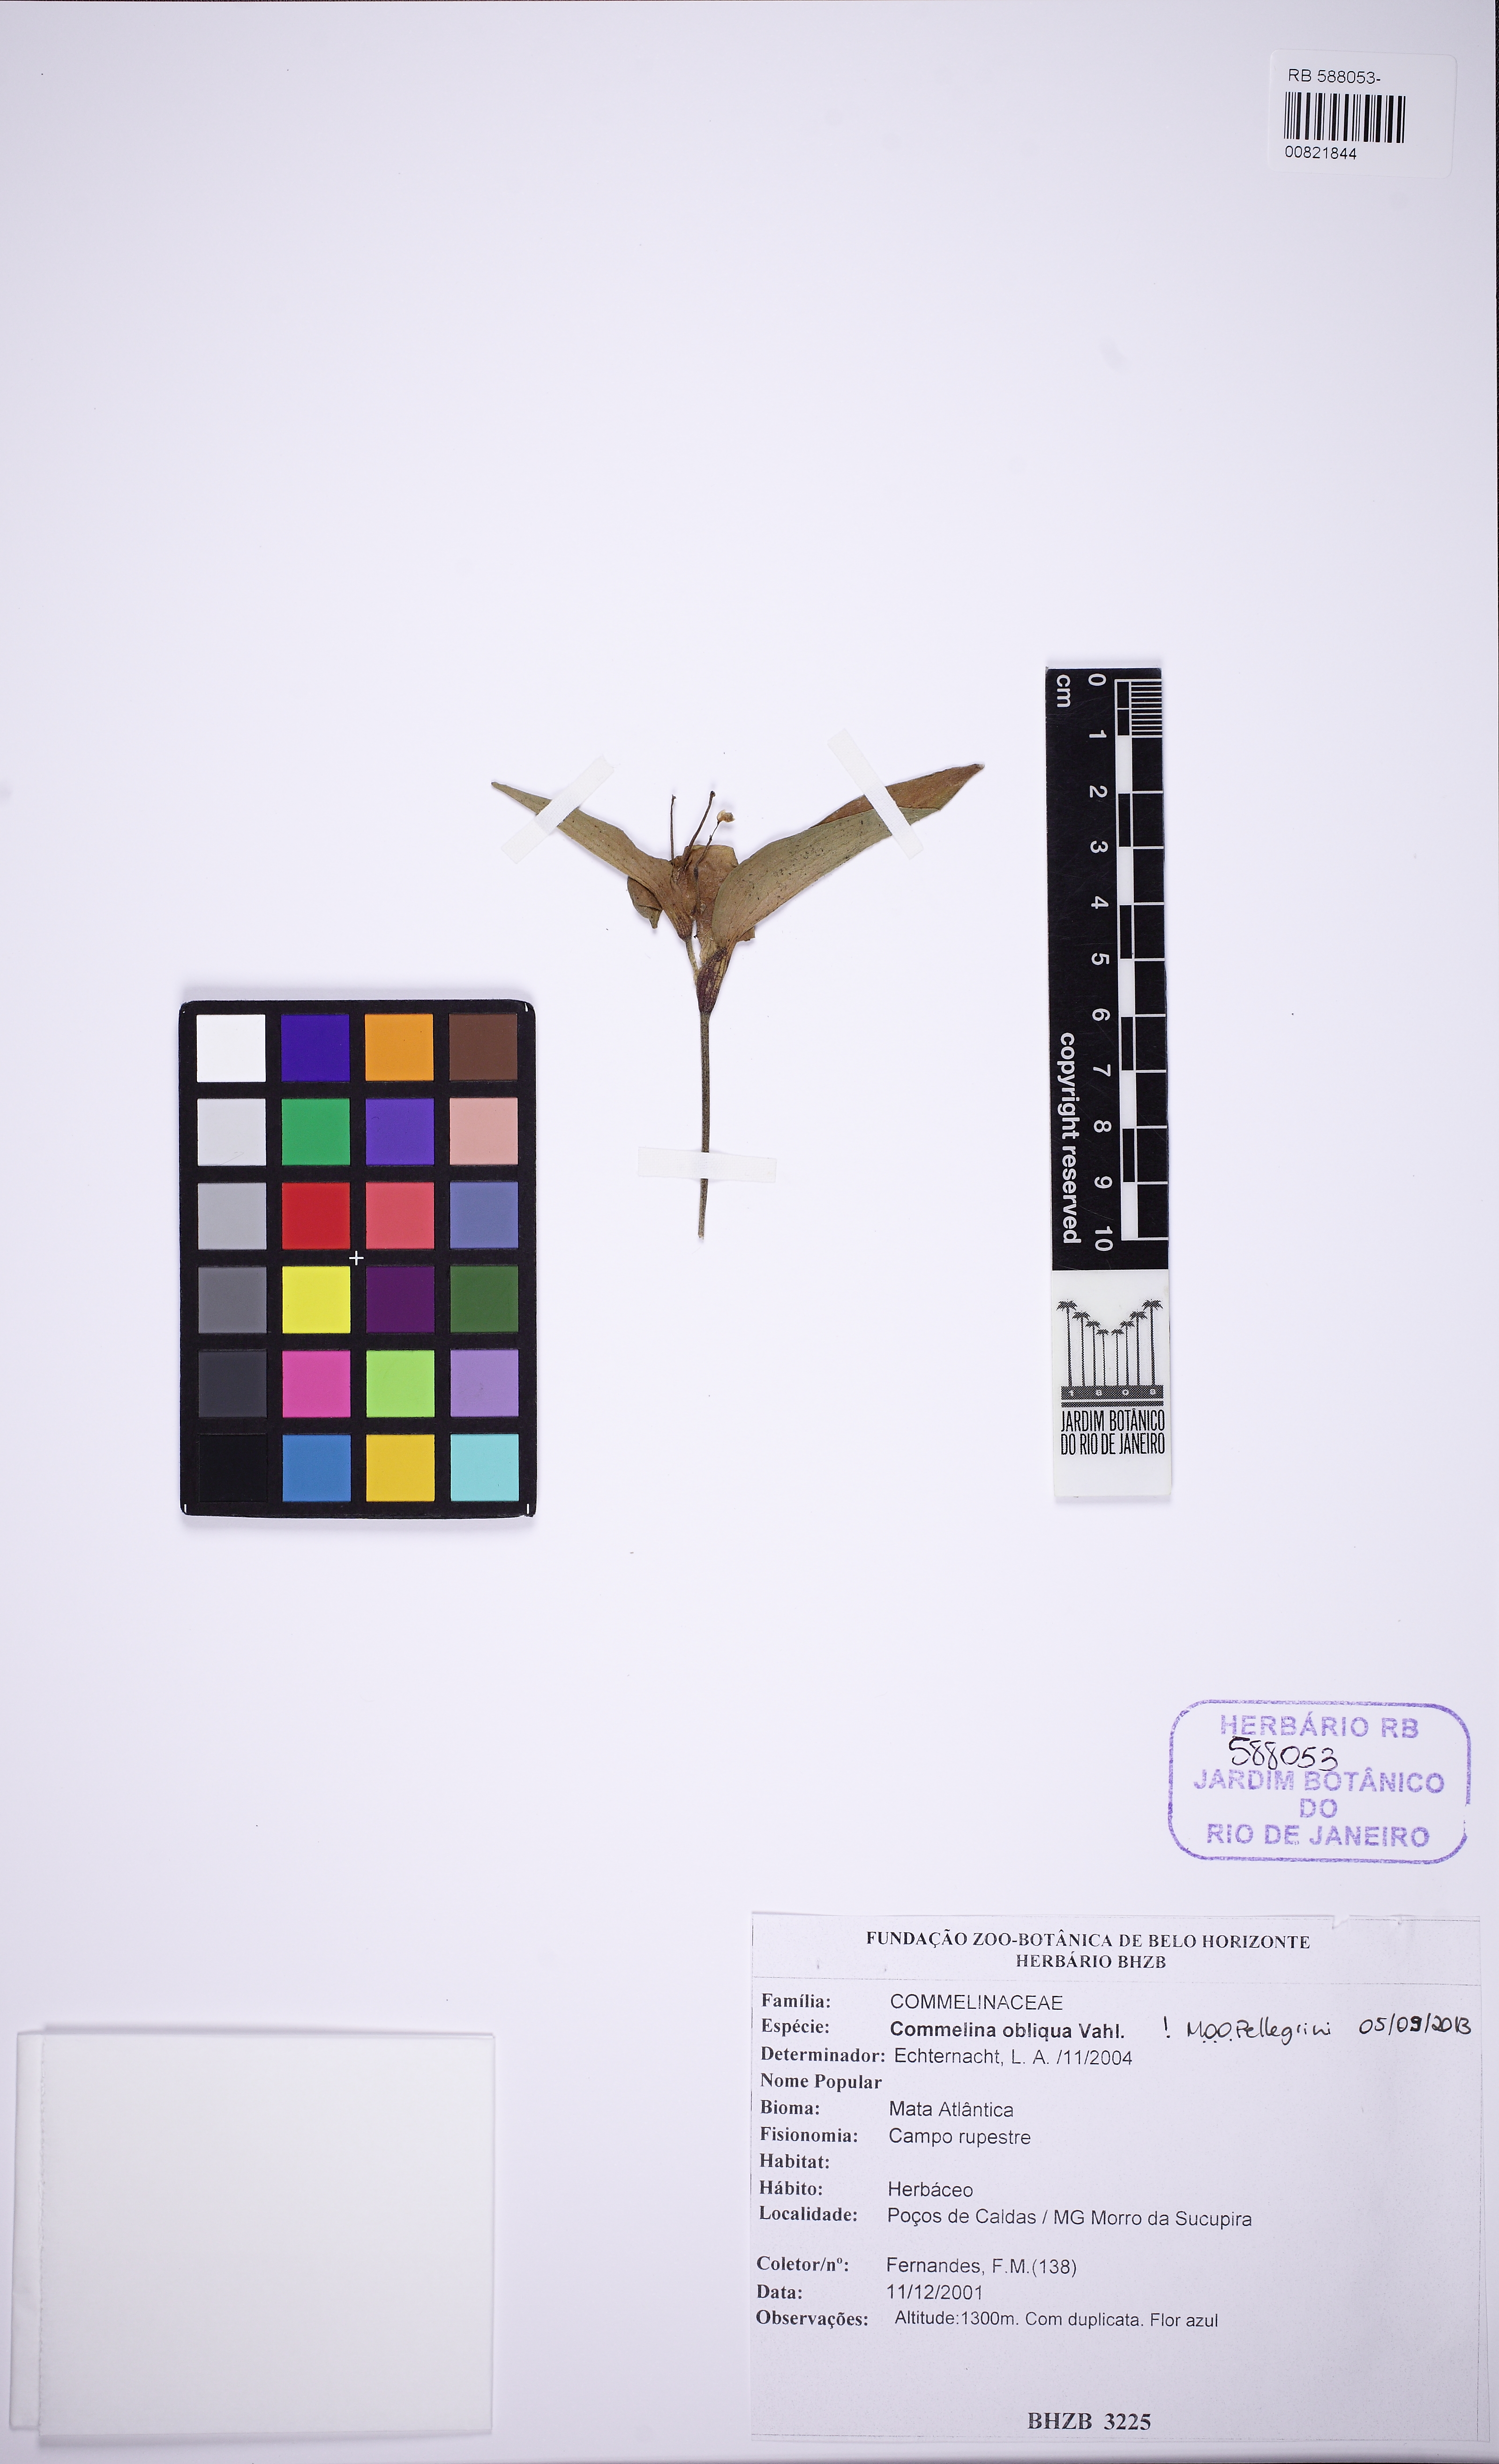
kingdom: Plantae
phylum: Tracheophyta
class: Liliopsida
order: Commelinales
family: Commelinaceae
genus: Commelina
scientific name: Commelina obliqua
